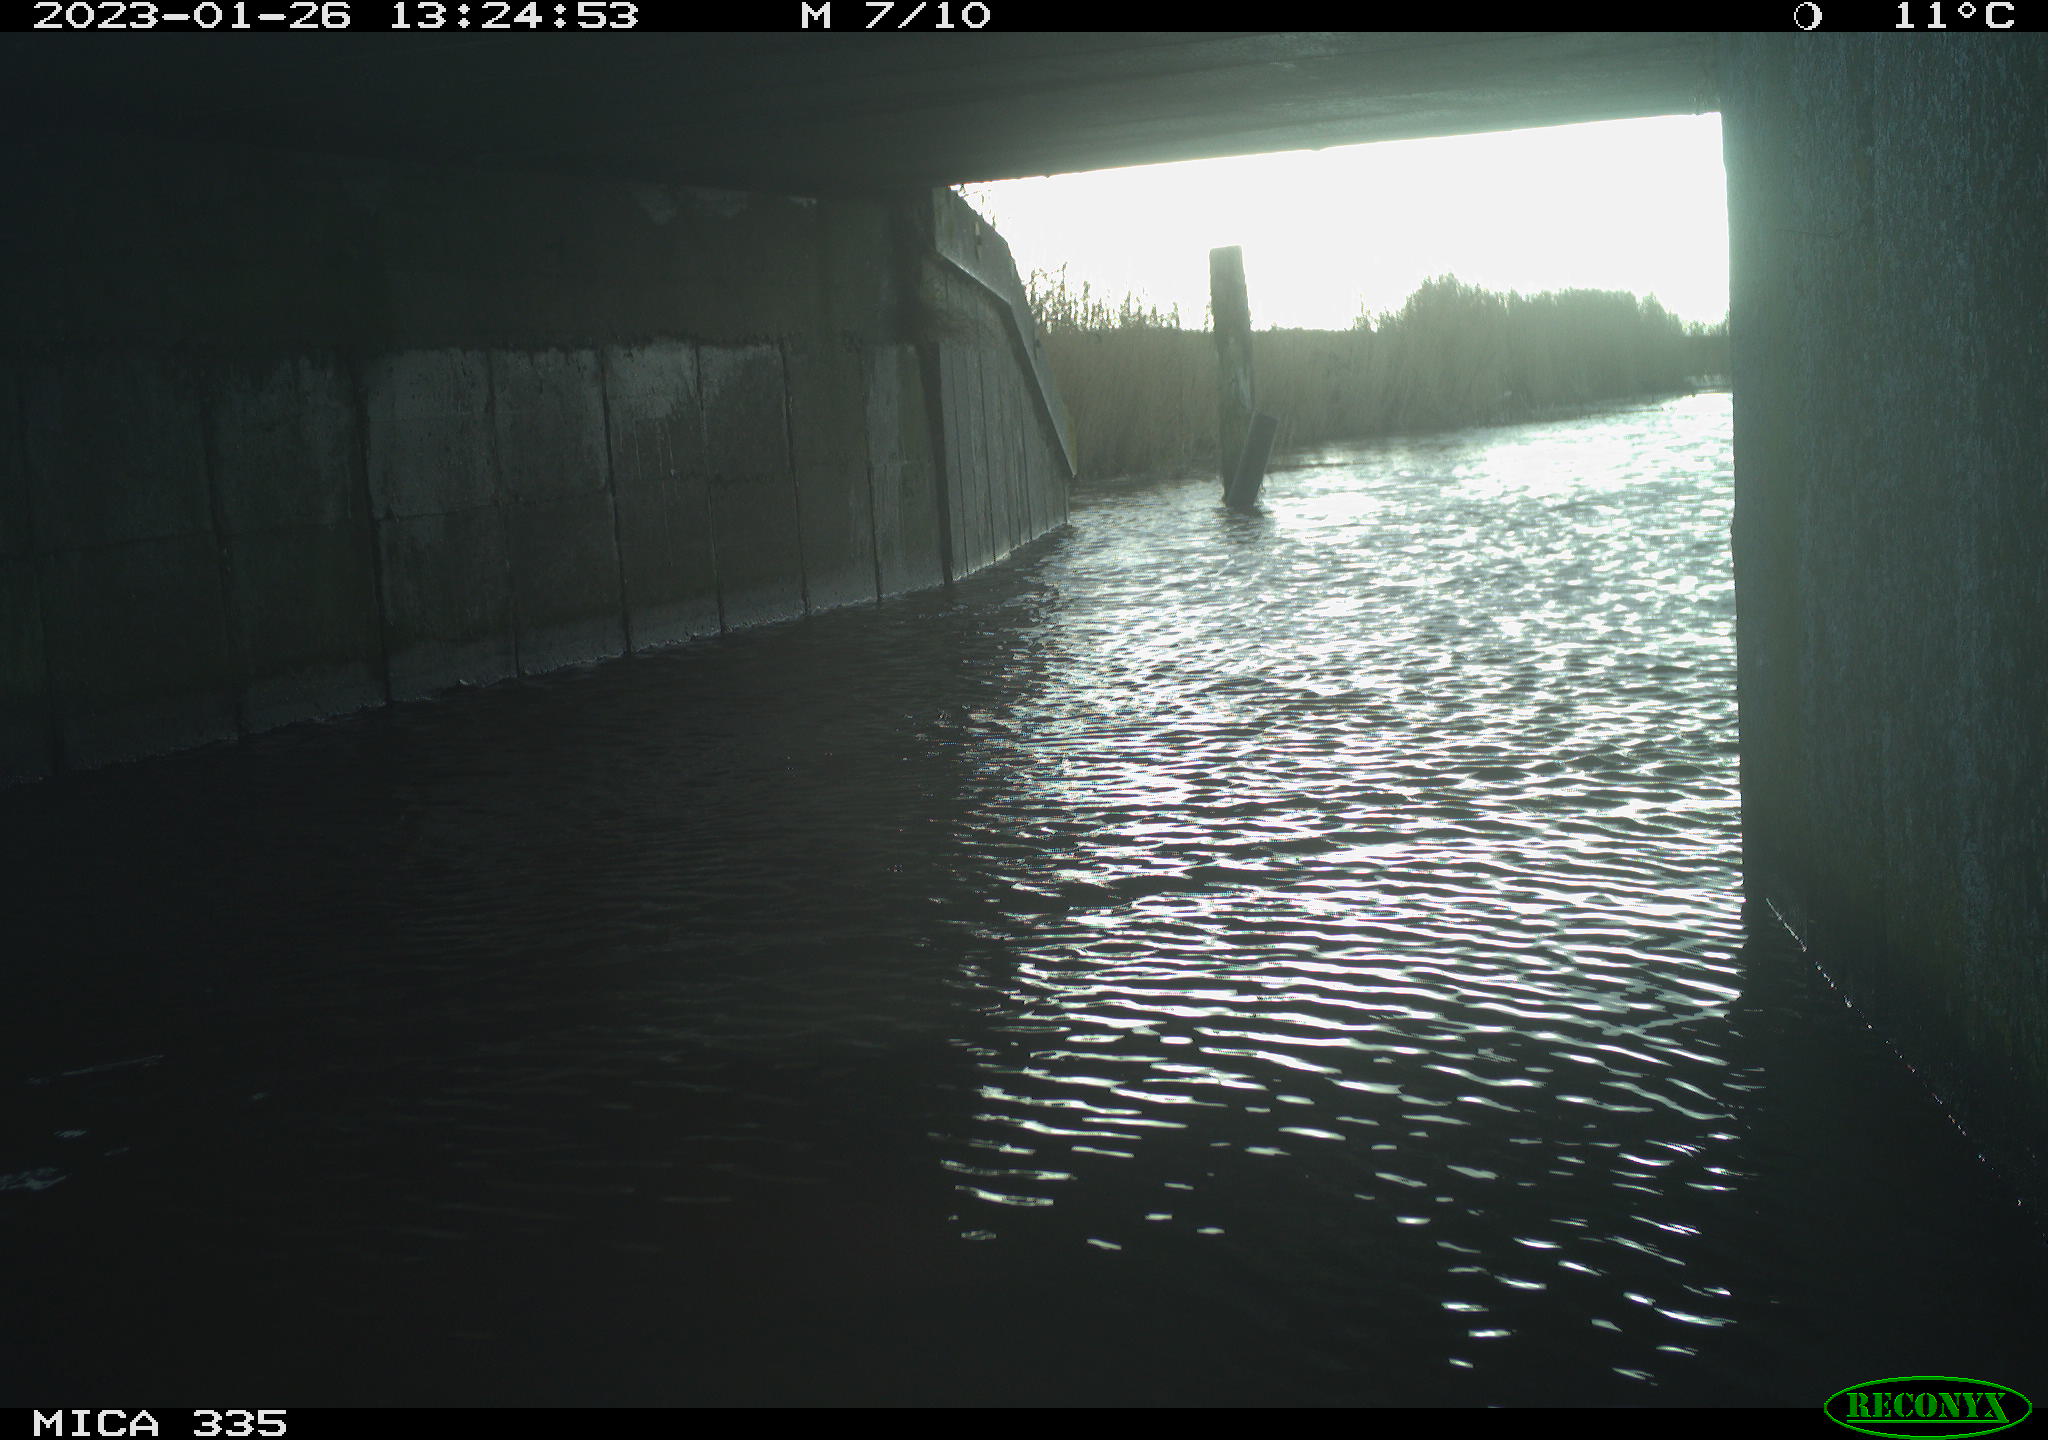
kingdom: Animalia
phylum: Chordata
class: Aves
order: Anseriformes
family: Anatidae
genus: Anas
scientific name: Anas
